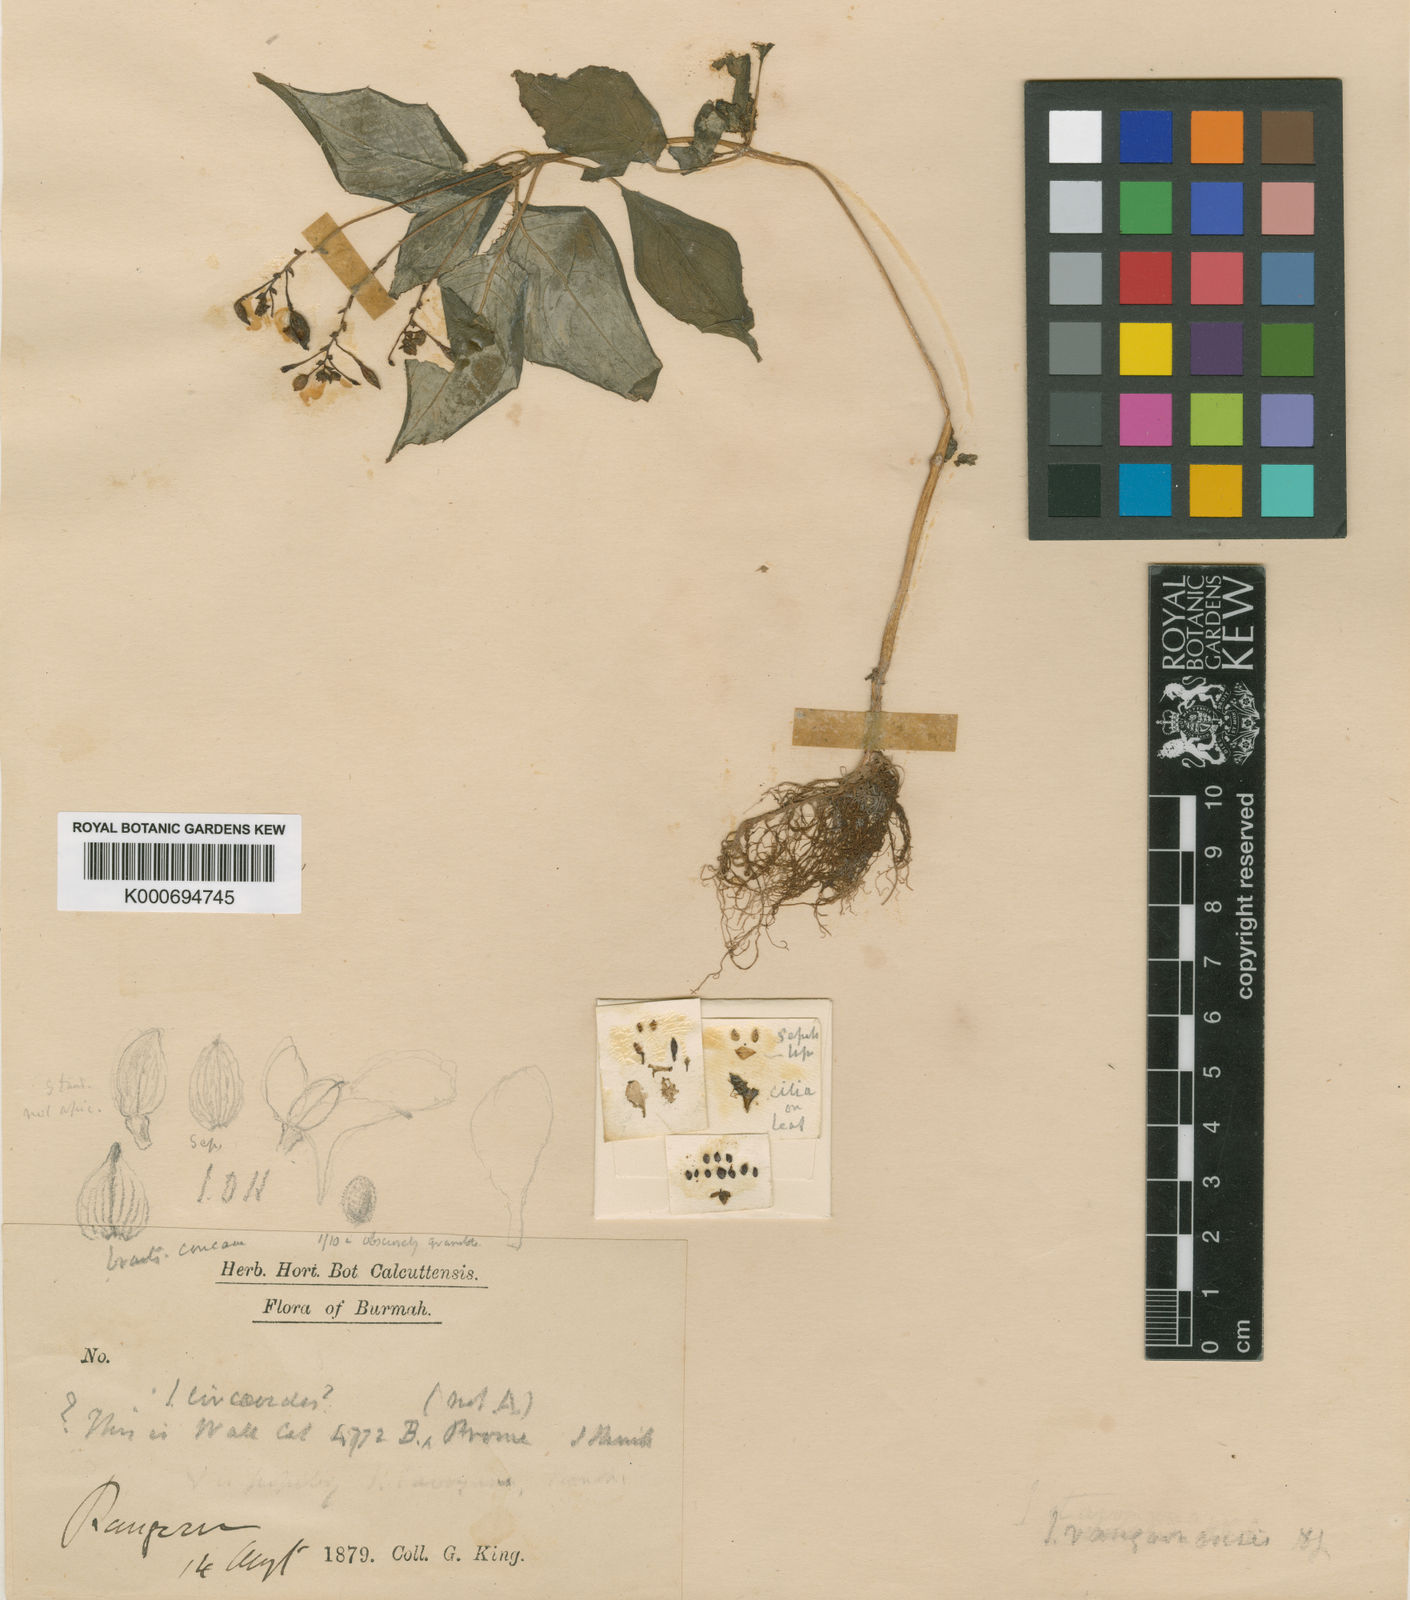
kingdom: Plantae
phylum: Tracheophyta
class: Magnoliopsida
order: Ericales
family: Balsaminaceae
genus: Impatiens
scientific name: Impatiens rangoonensis
